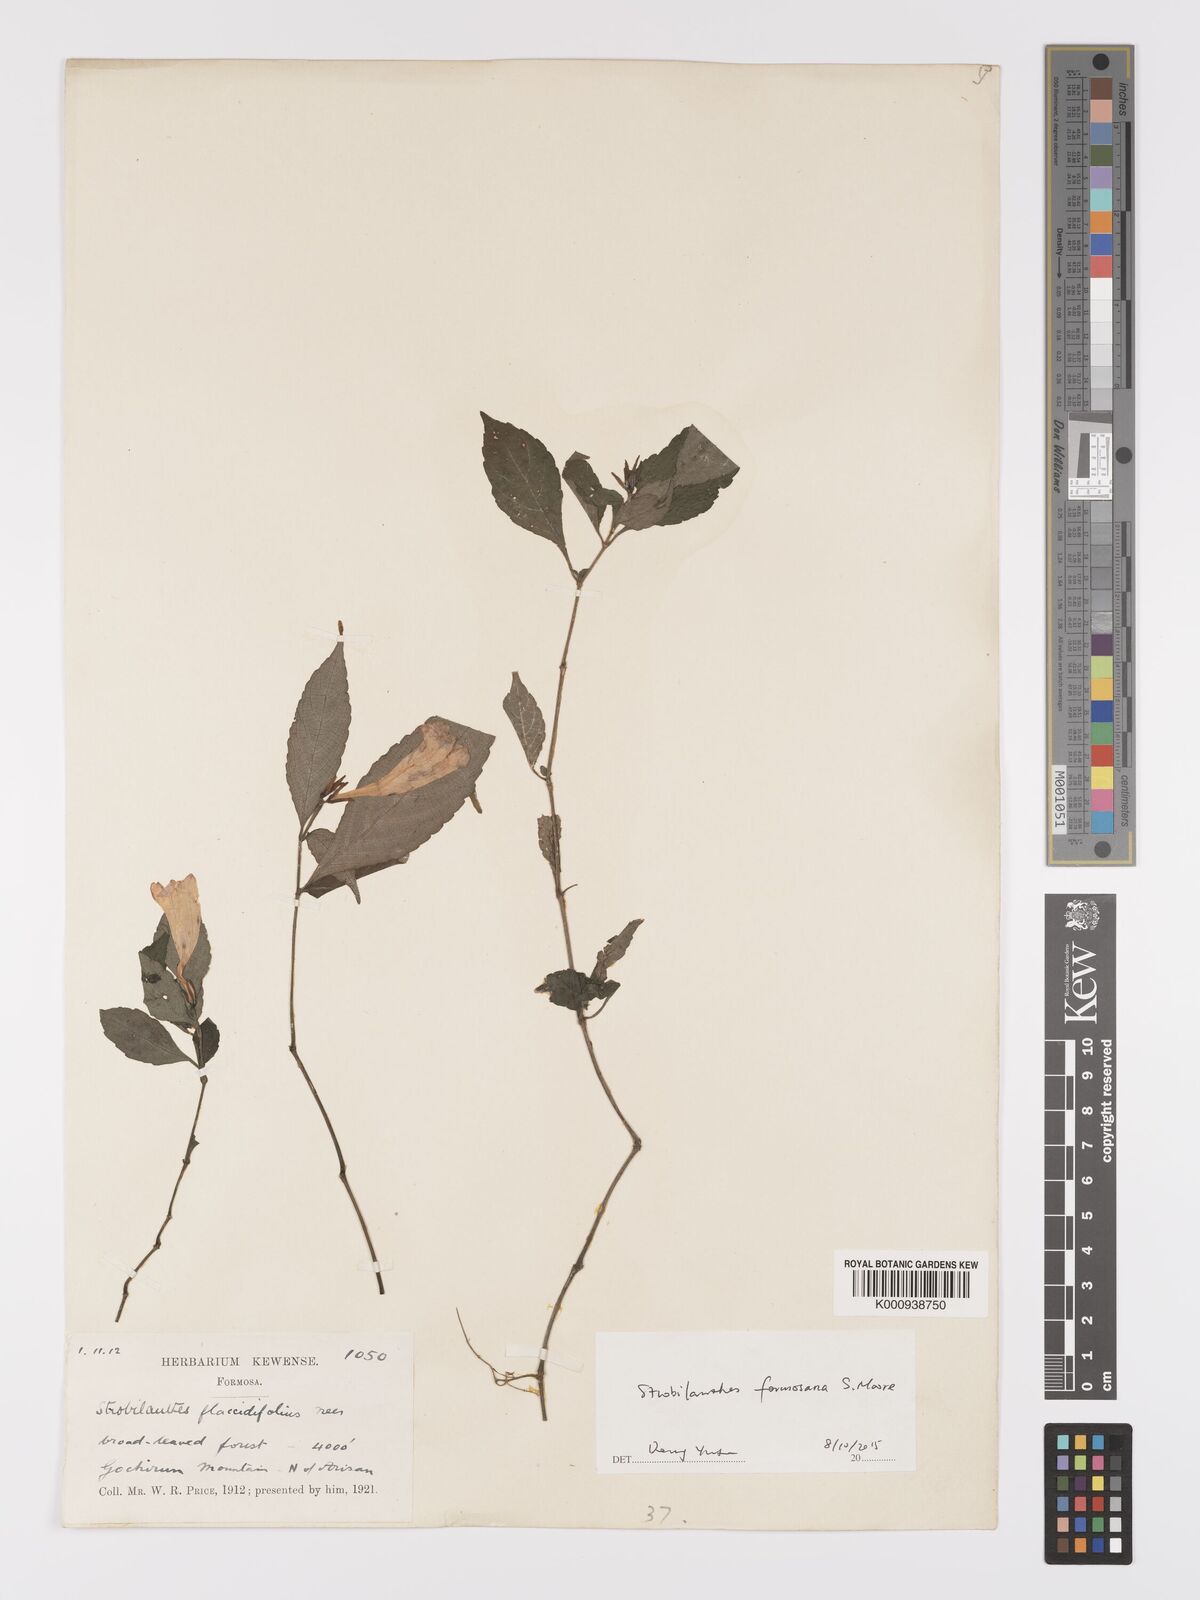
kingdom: Plantae
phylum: Tracheophyta
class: Magnoliopsida
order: Lamiales
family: Acanthaceae
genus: Strobilanthes
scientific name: Strobilanthes formosana
